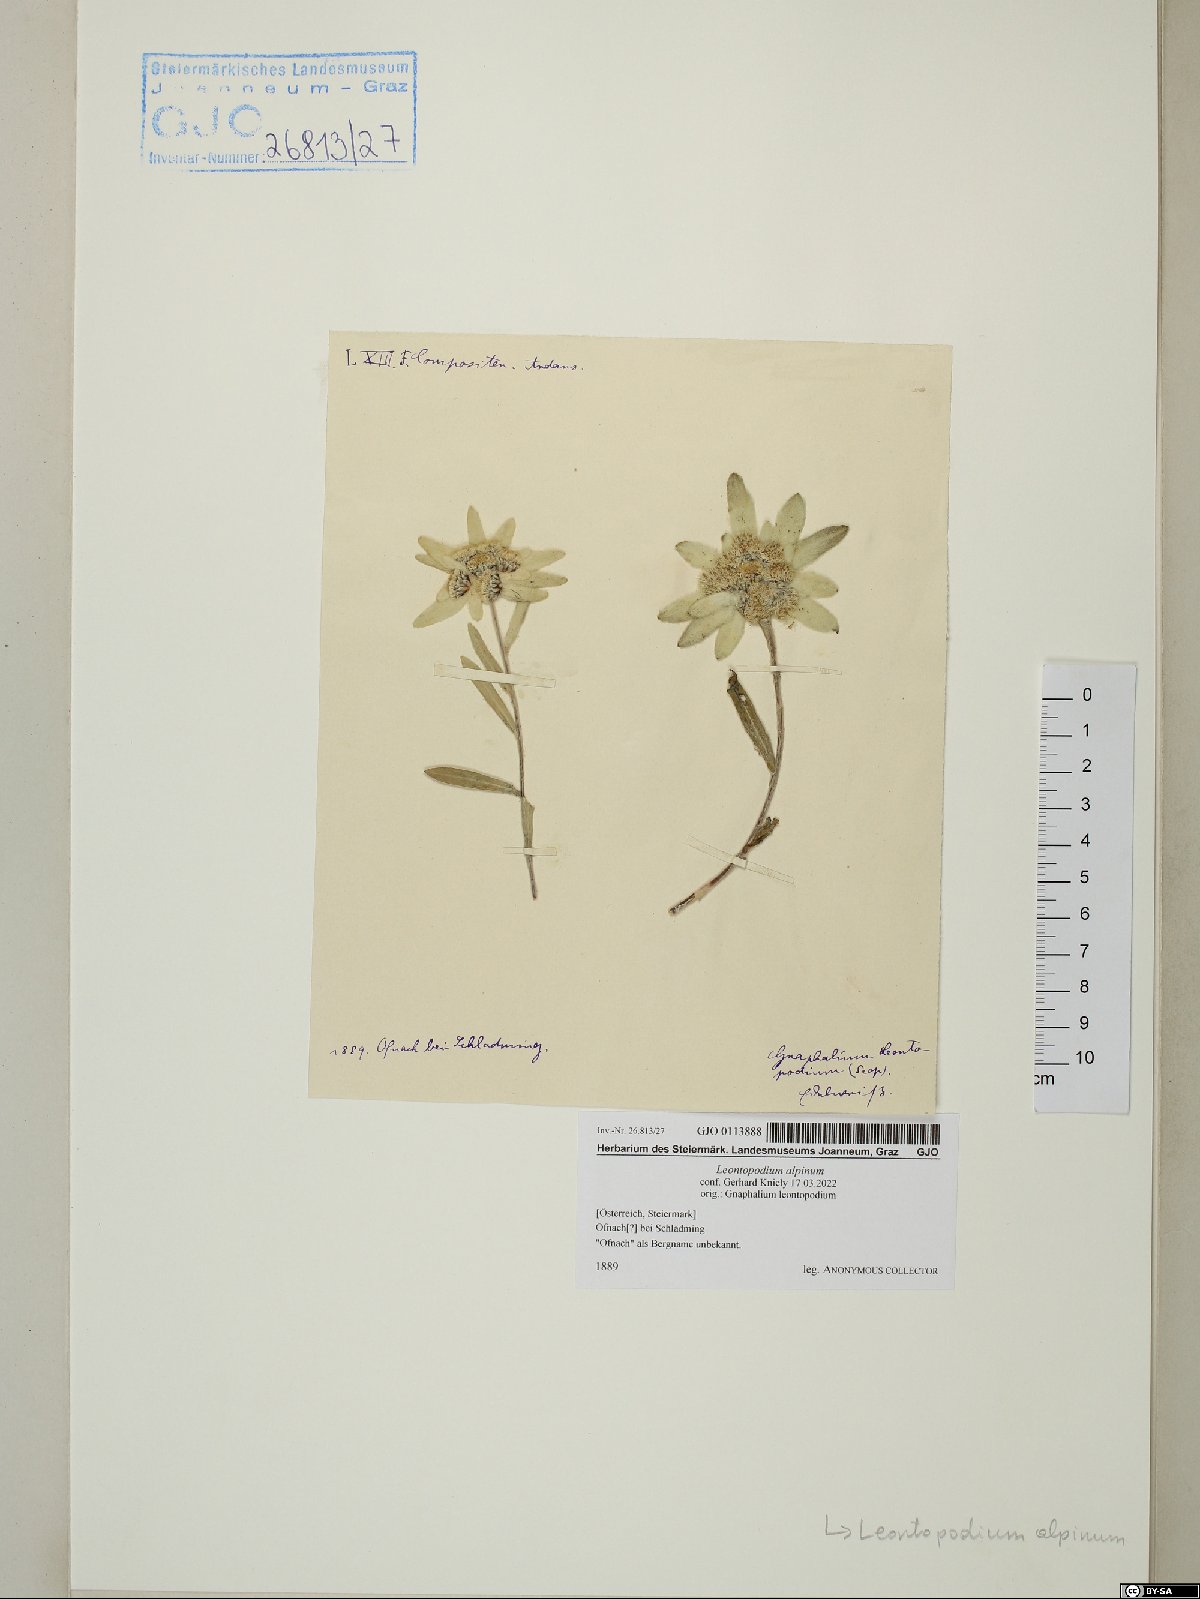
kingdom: Plantae
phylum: Tracheophyta
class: Magnoliopsida
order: Asterales
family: Asteraceae
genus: Leontopodium
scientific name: Leontopodium nivale
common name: Edelweiss
